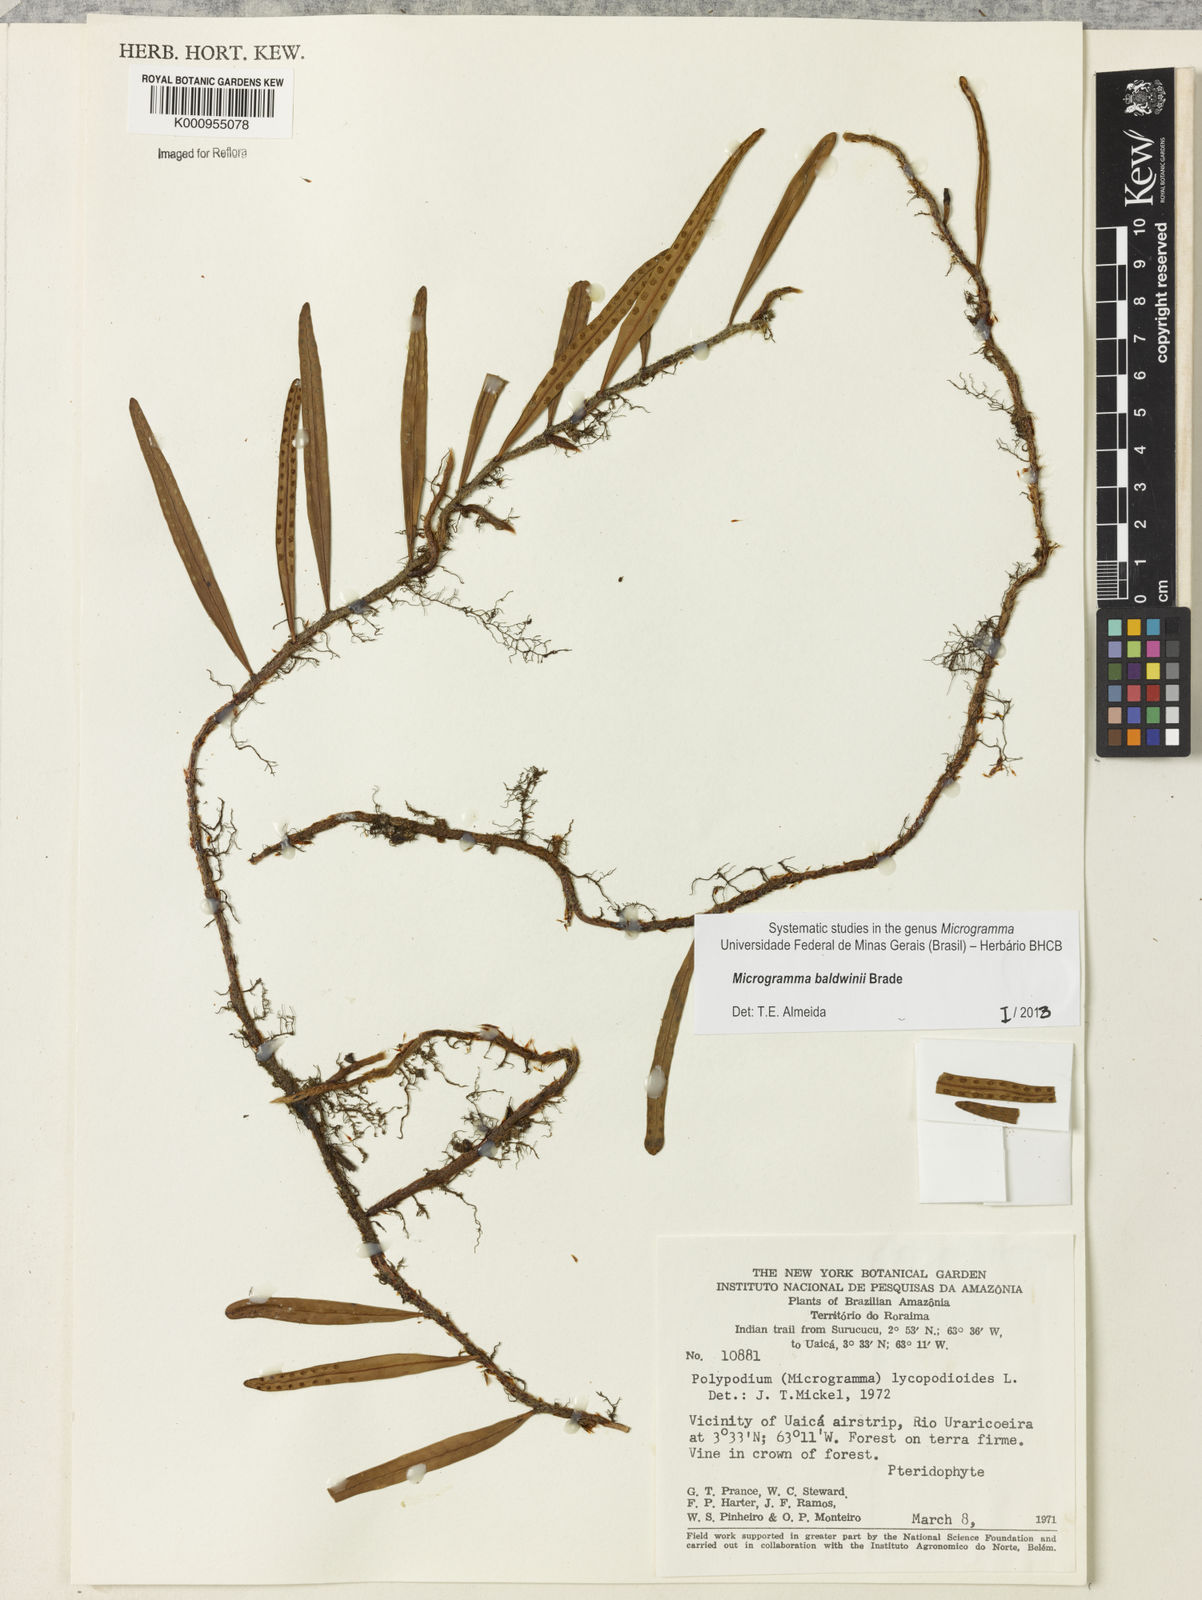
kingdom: Plantae
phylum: Tracheophyta
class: Polypodiopsida
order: Polypodiales
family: Polypodiaceae
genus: Microgramma
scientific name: Microgramma baldwinii
